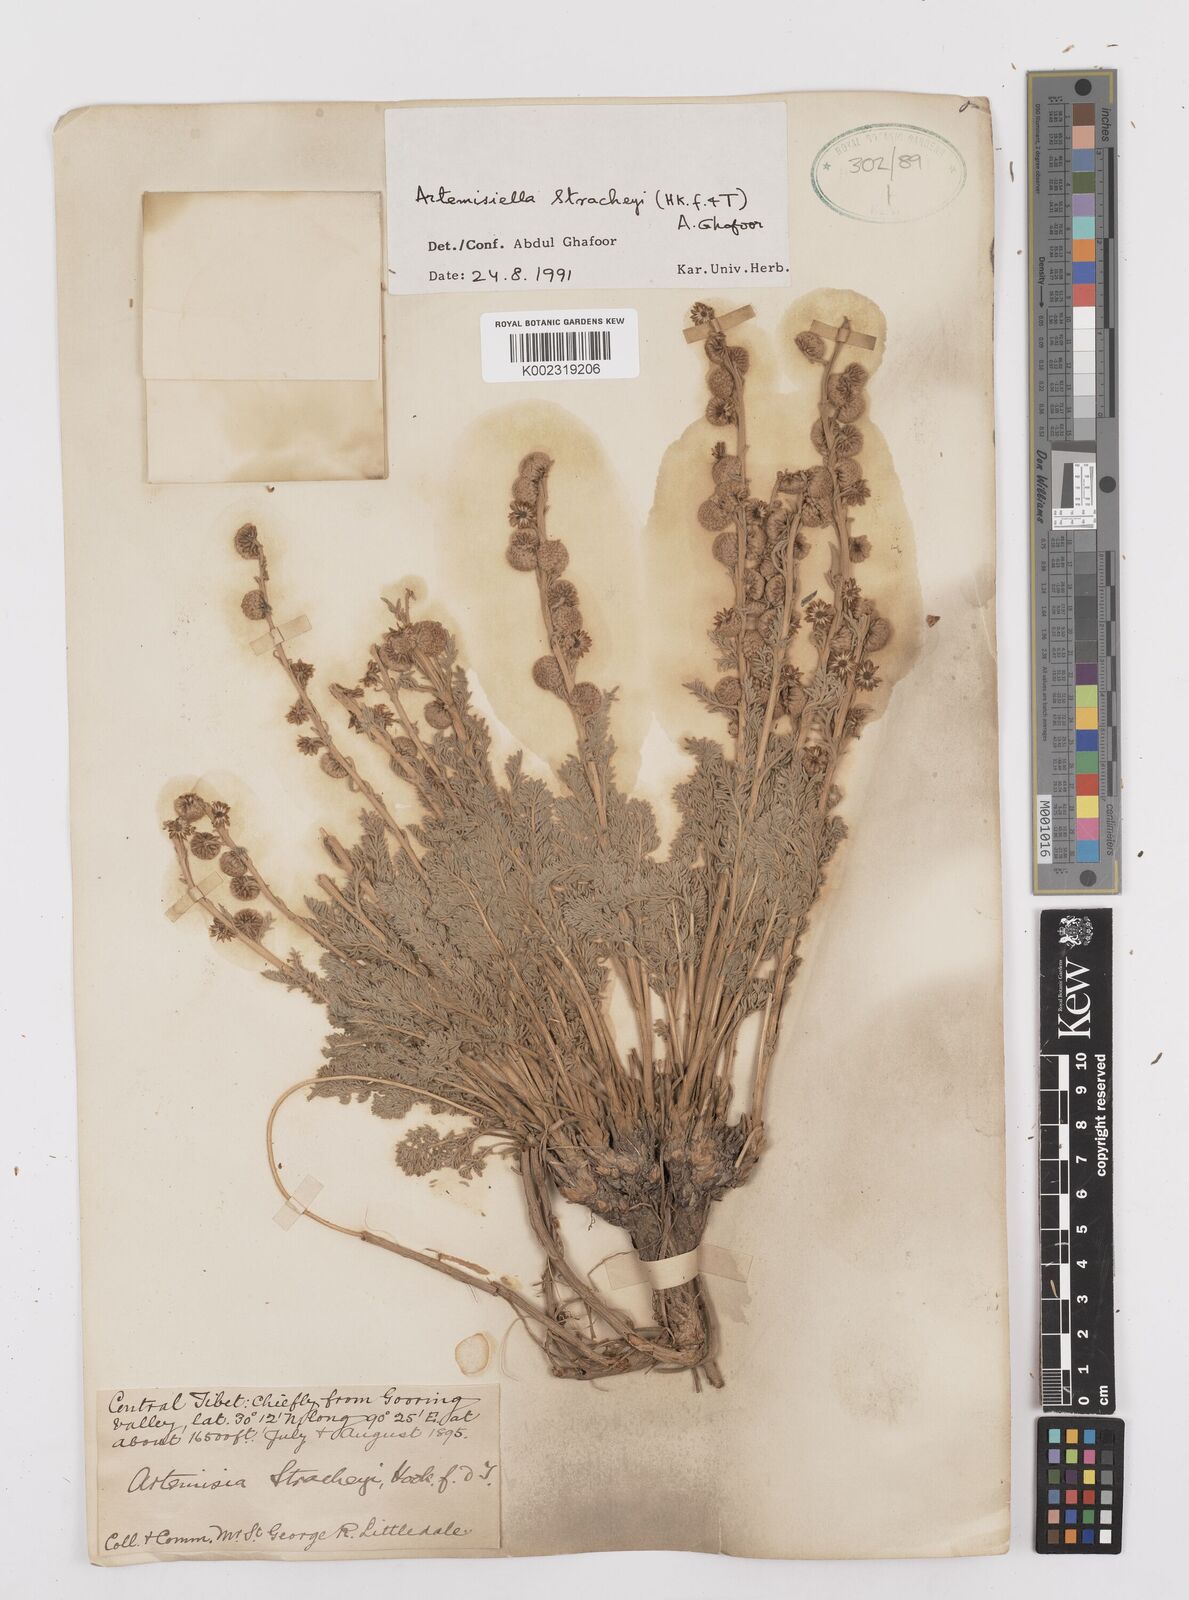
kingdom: Plantae
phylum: Tracheophyta
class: Magnoliopsida
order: Asterales
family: Asteraceae
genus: Artemisiella
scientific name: Artemisiella stracheyi
